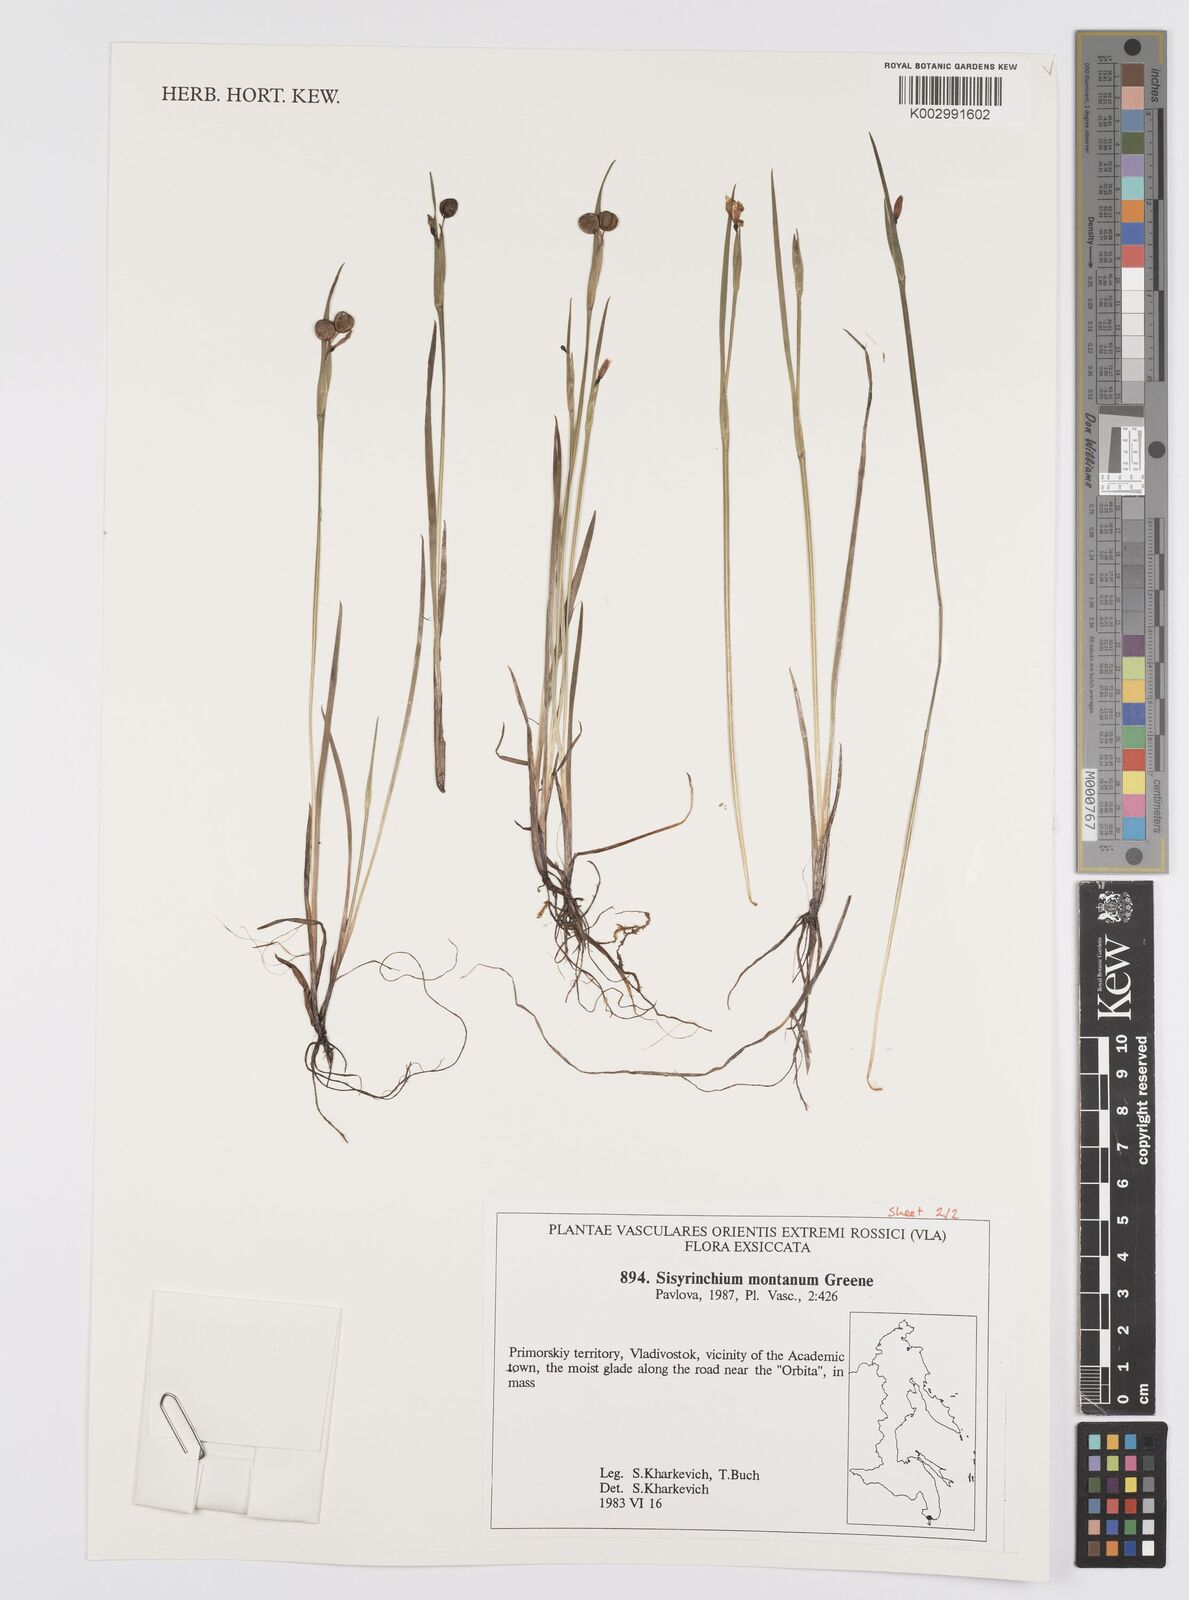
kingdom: Plantae
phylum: Tracheophyta
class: Liliopsida
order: Asparagales
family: Iridaceae
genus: Sisyrinchium
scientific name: Sisyrinchium montanum
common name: American blue-eyed-grass
